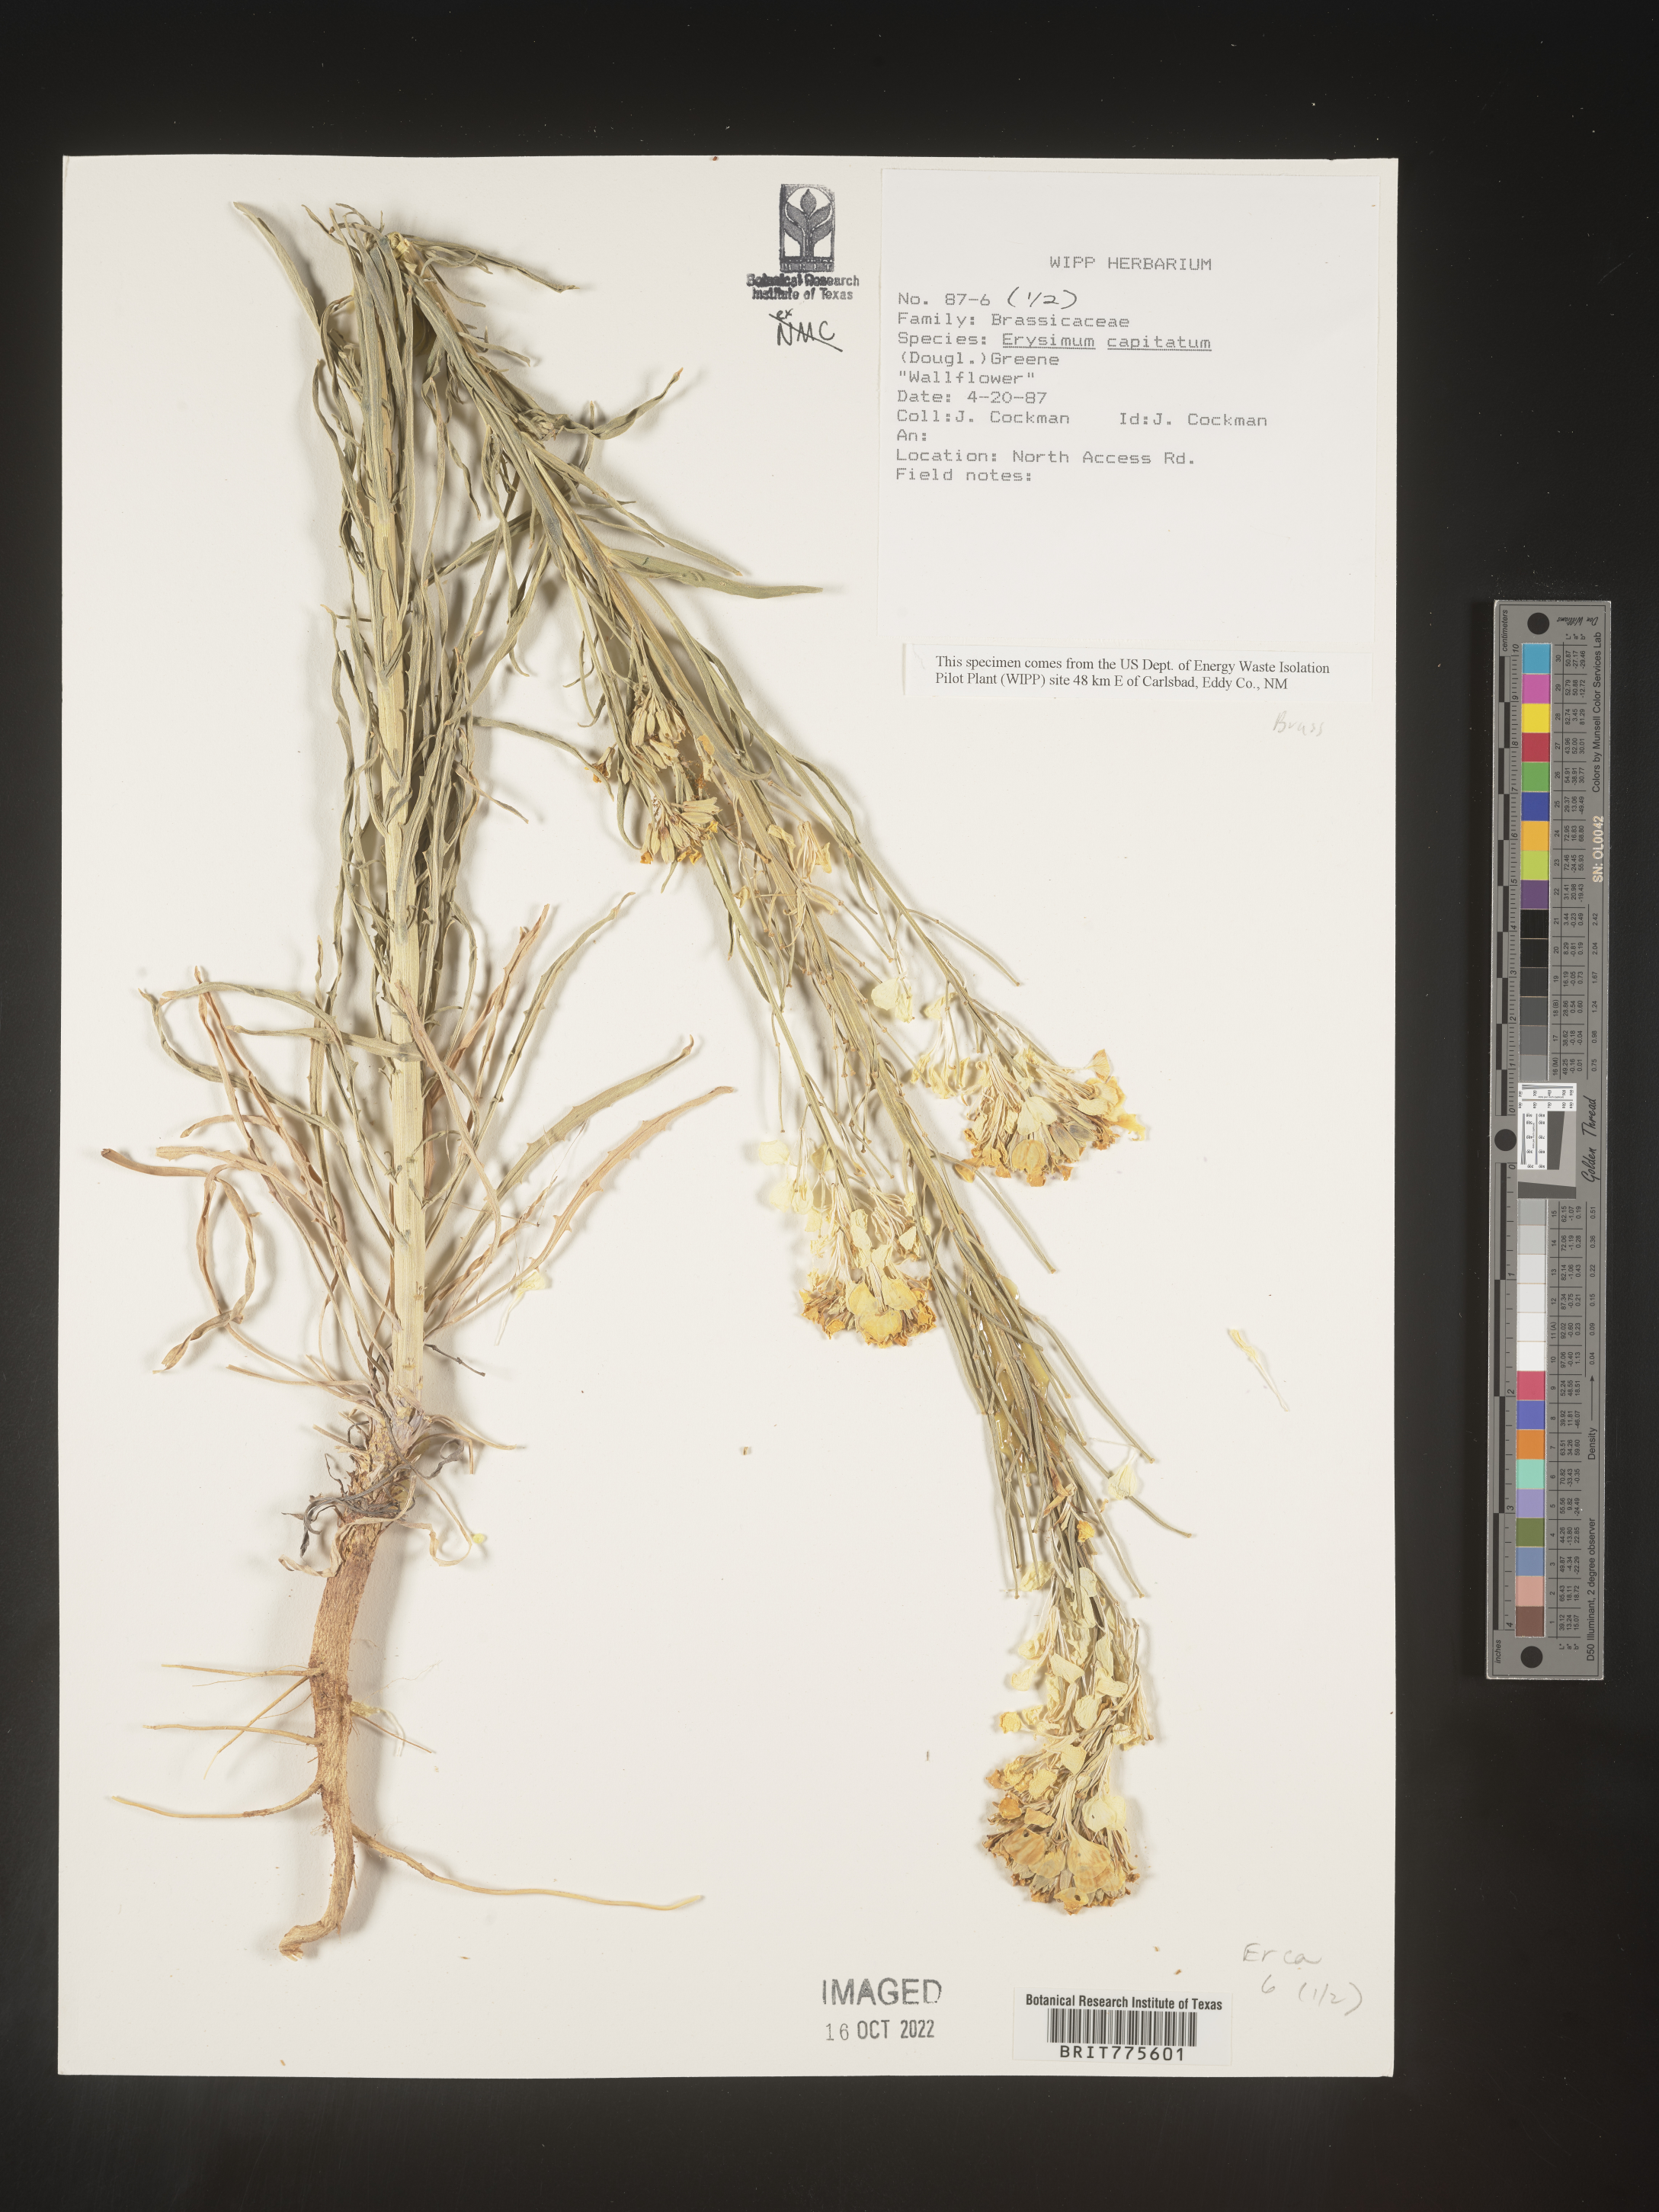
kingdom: Plantae
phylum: Tracheophyta
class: Magnoliopsida
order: Brassicales
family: Brassicaceae
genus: Erysimum
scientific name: Erysimum capitatum
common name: Western wallflower
